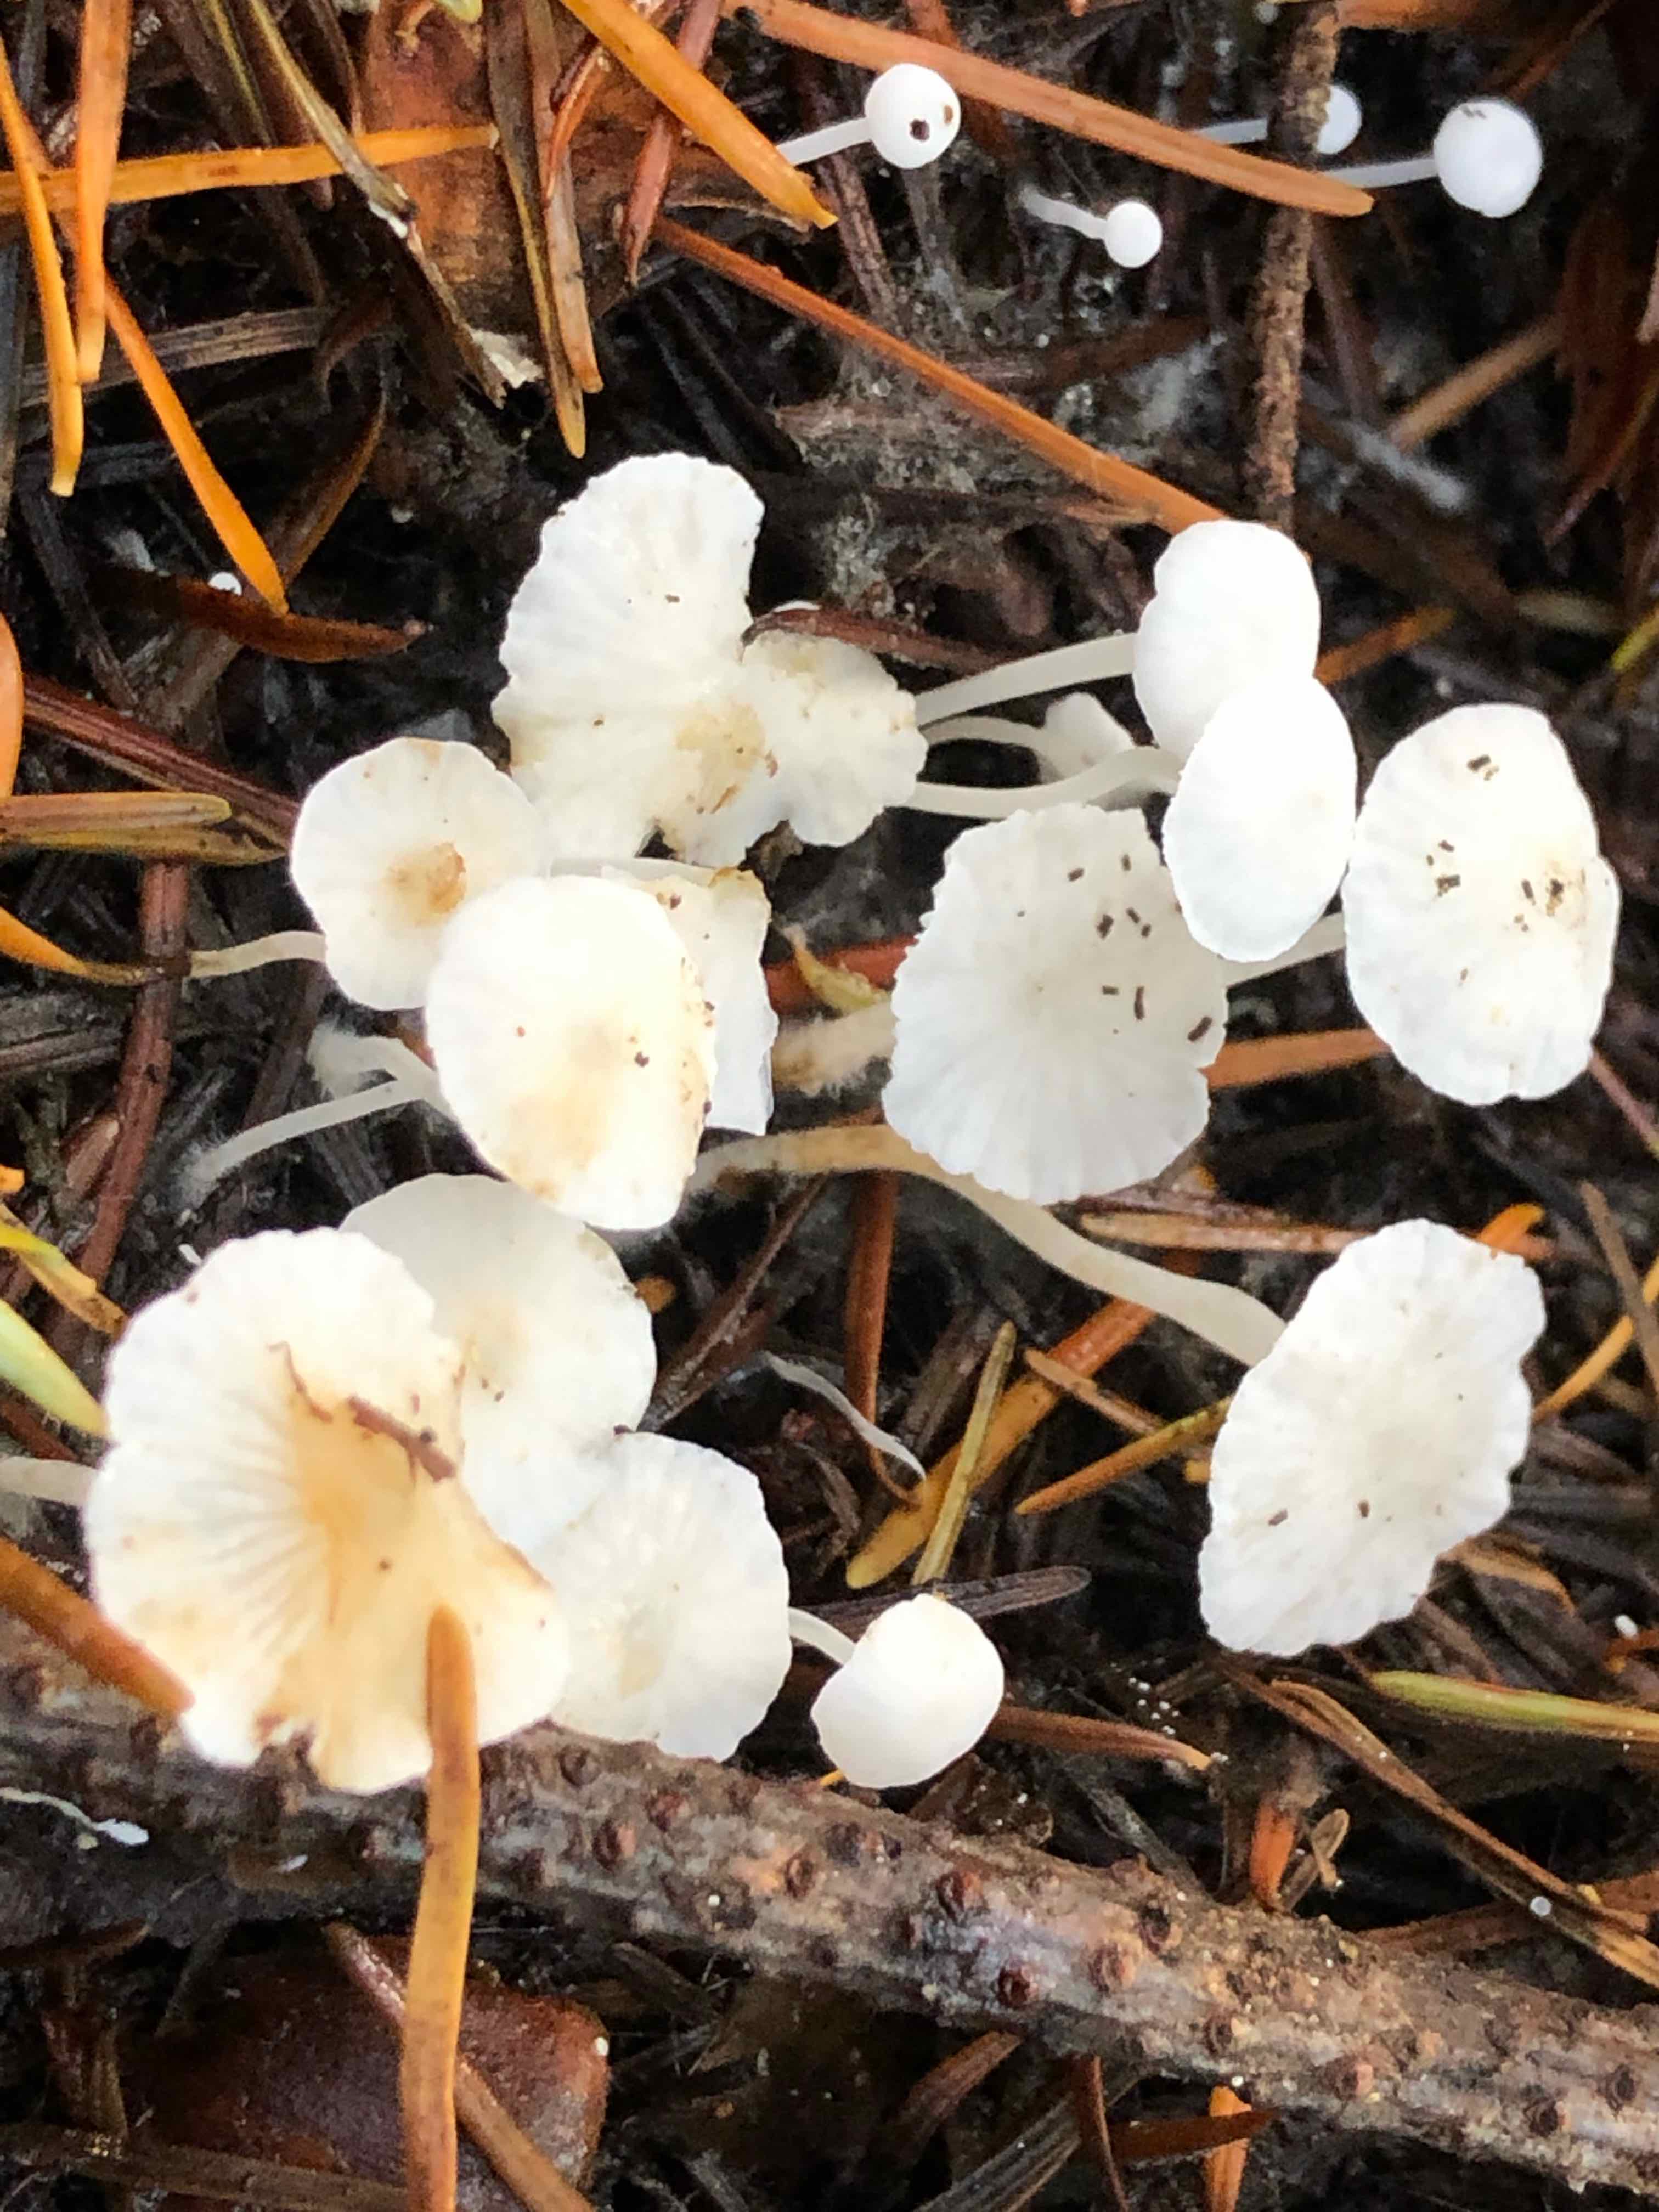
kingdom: Fungi
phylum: Basidiomycota
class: Agaricomycetes
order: Agaricales
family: Mycenaceae
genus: Hemimycena
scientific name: Hemimycena
